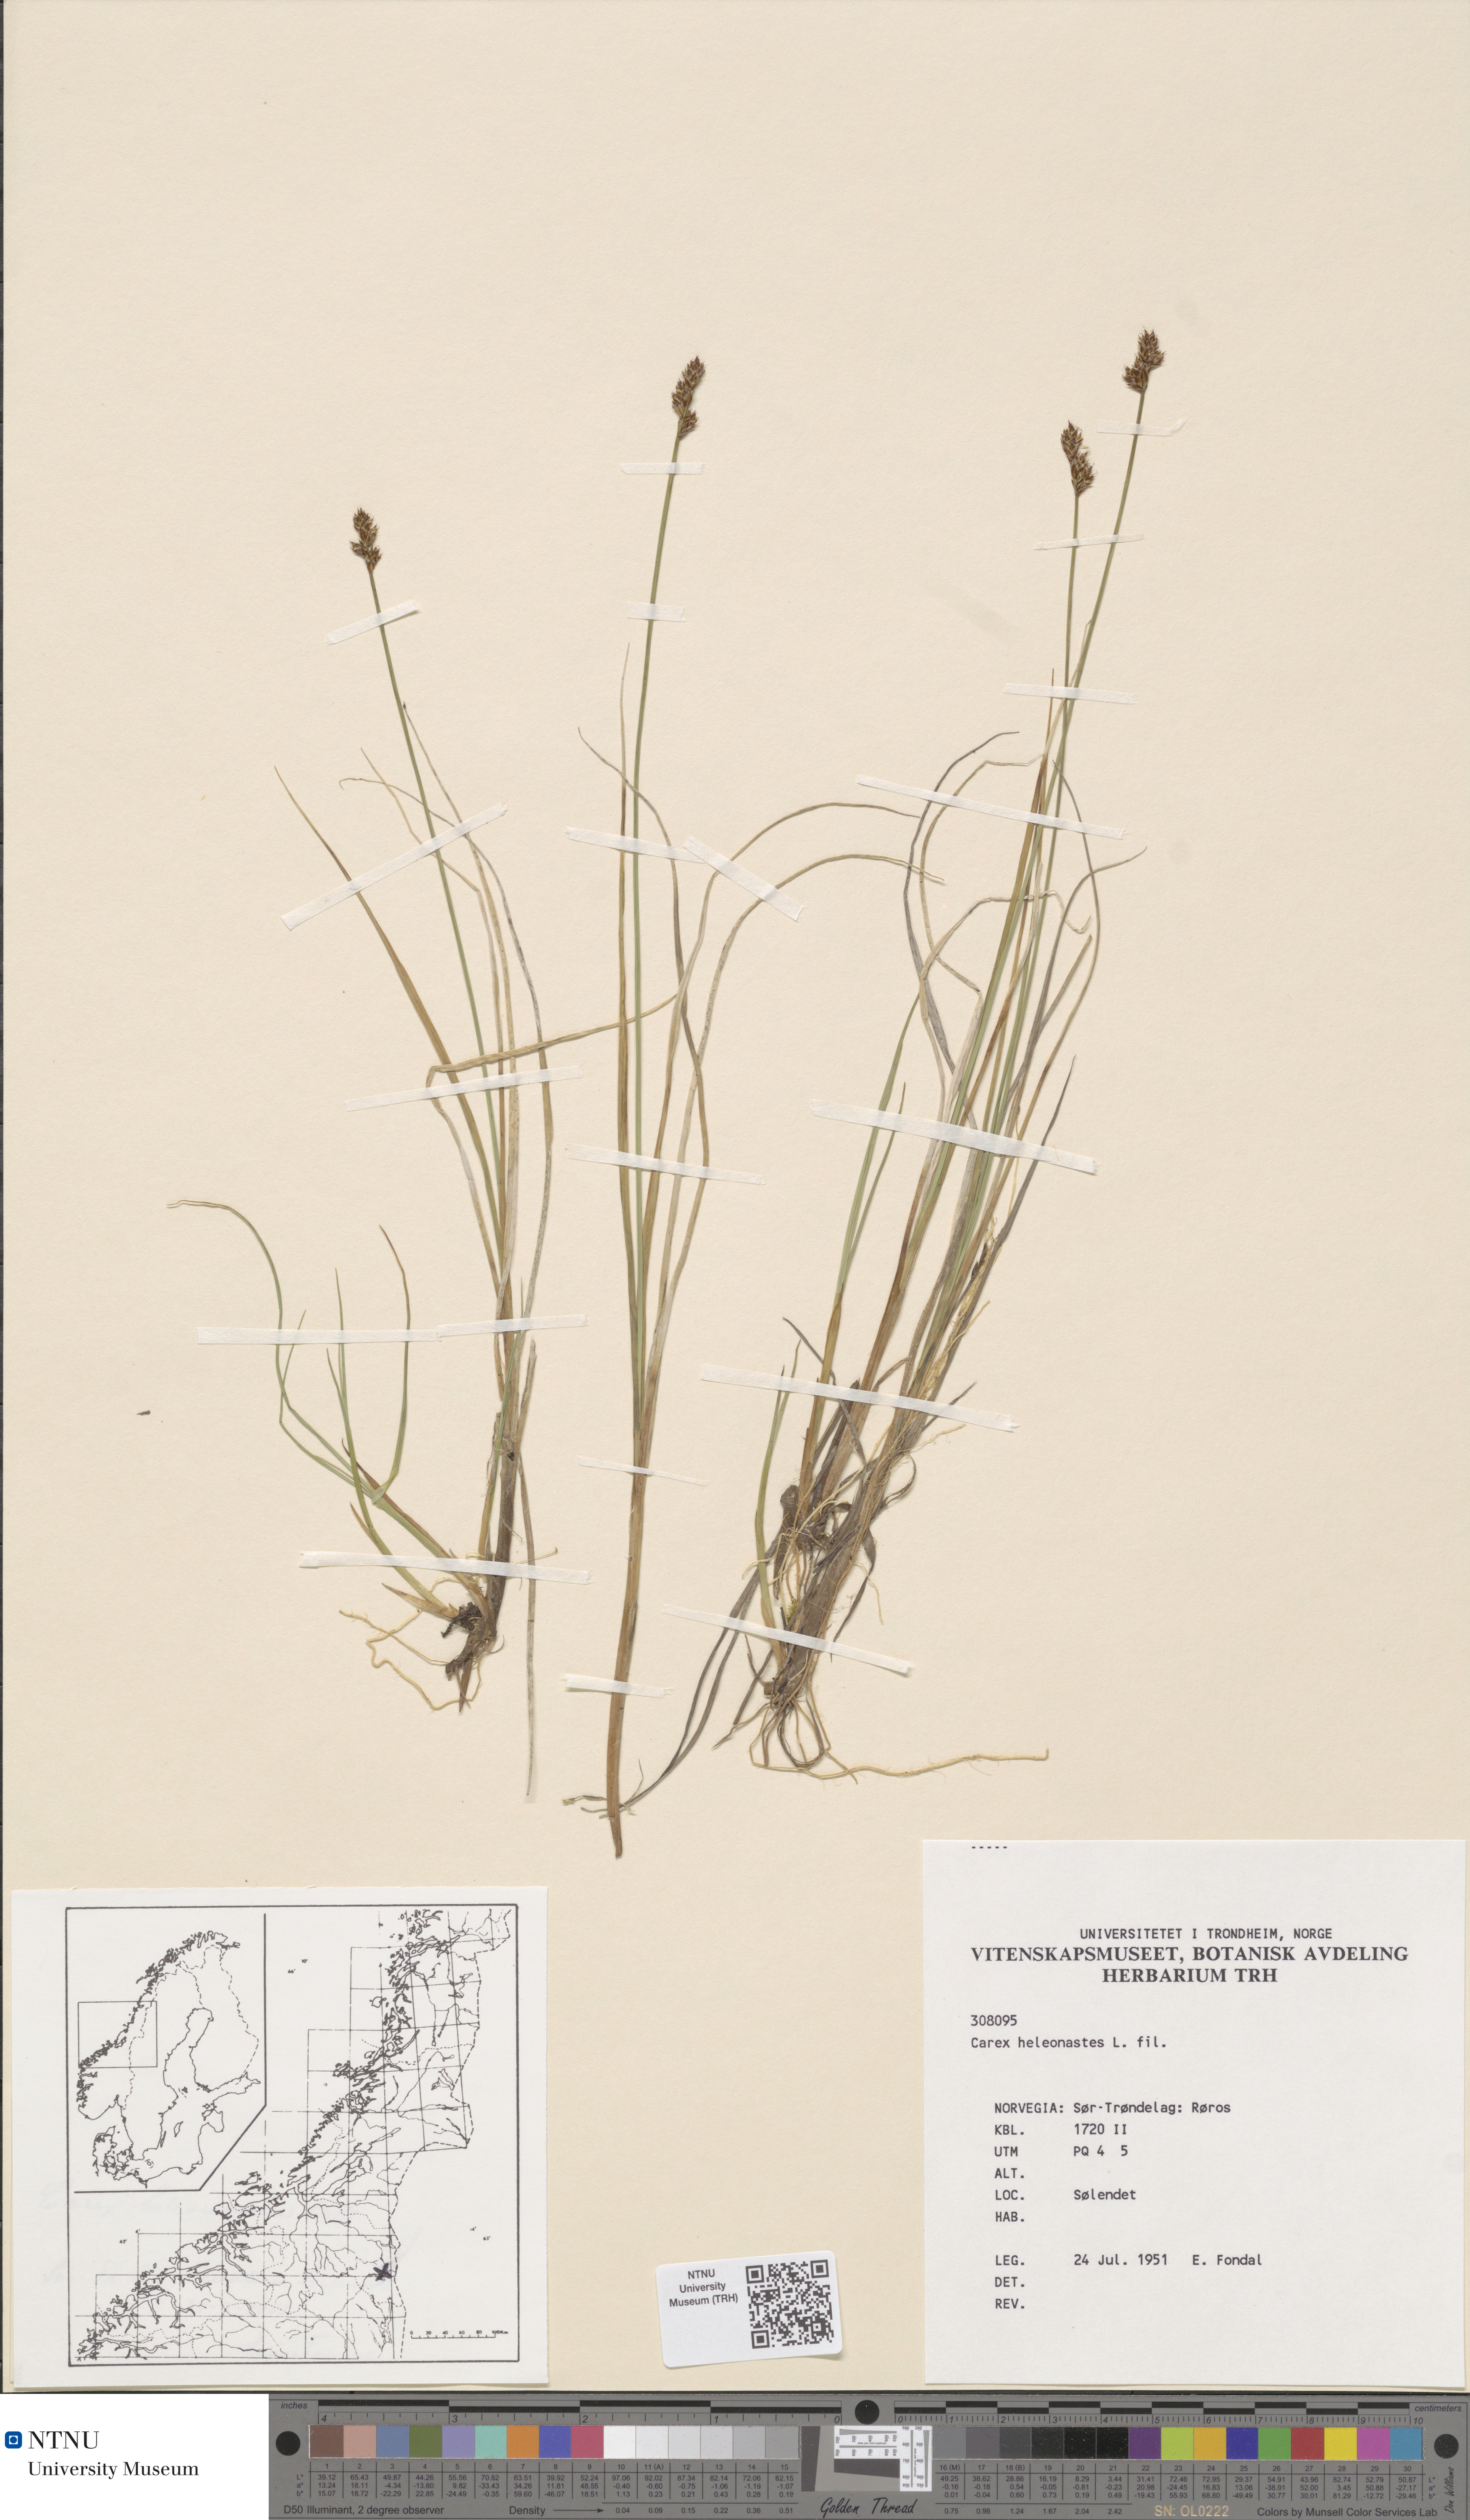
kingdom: Plantae
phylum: Tracheophyta
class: Liliopsida
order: Poales
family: Cyperaceae
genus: Carex
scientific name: Carex heleonastes
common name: Hudson bay sedge
